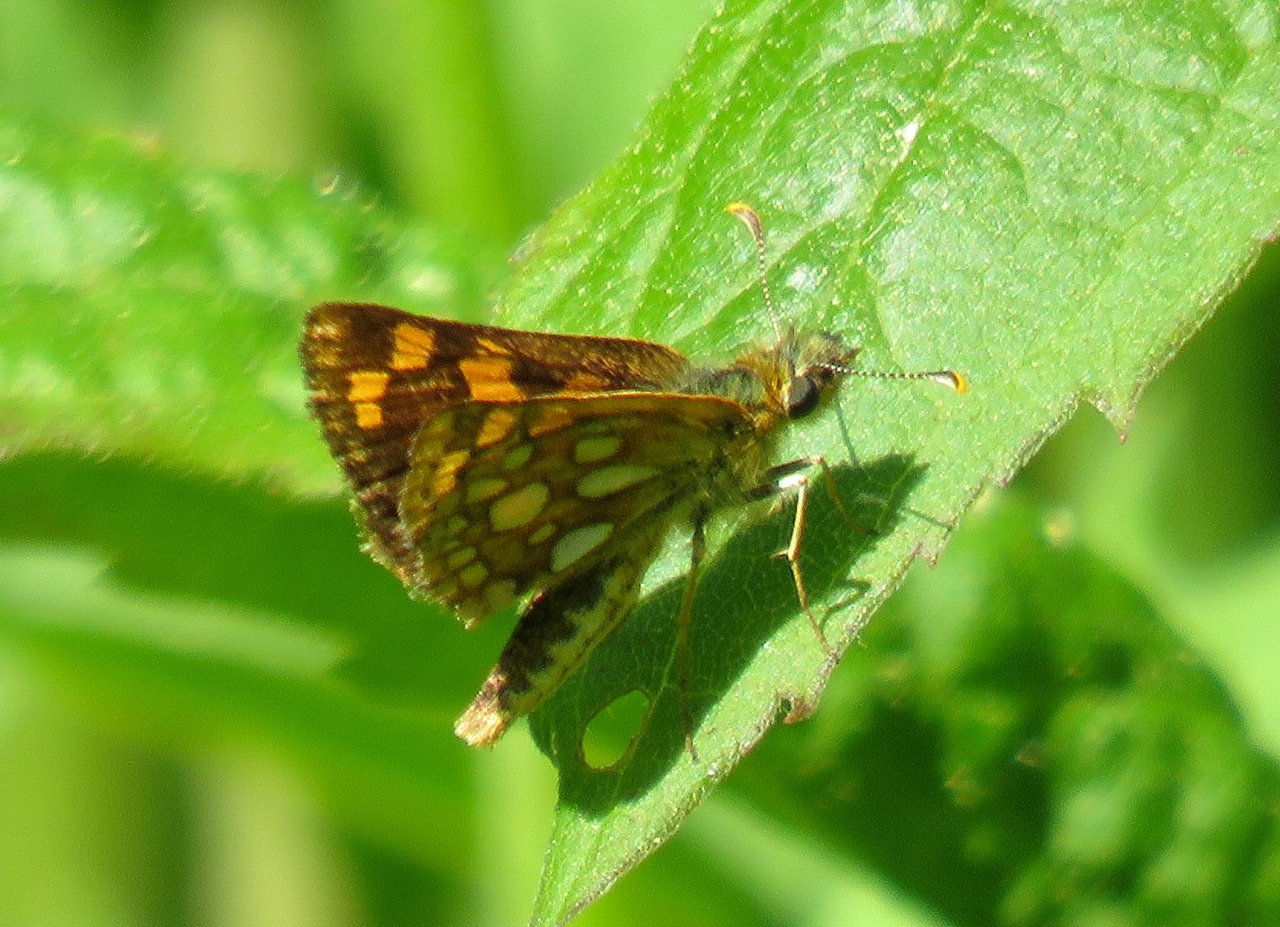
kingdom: Animalia
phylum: Arthropoda
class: Insecta
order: Lepidoptera
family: Hesperiidae
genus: Carterocephalus
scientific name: Carterocephalus palaemon
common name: Chequered Skipper
